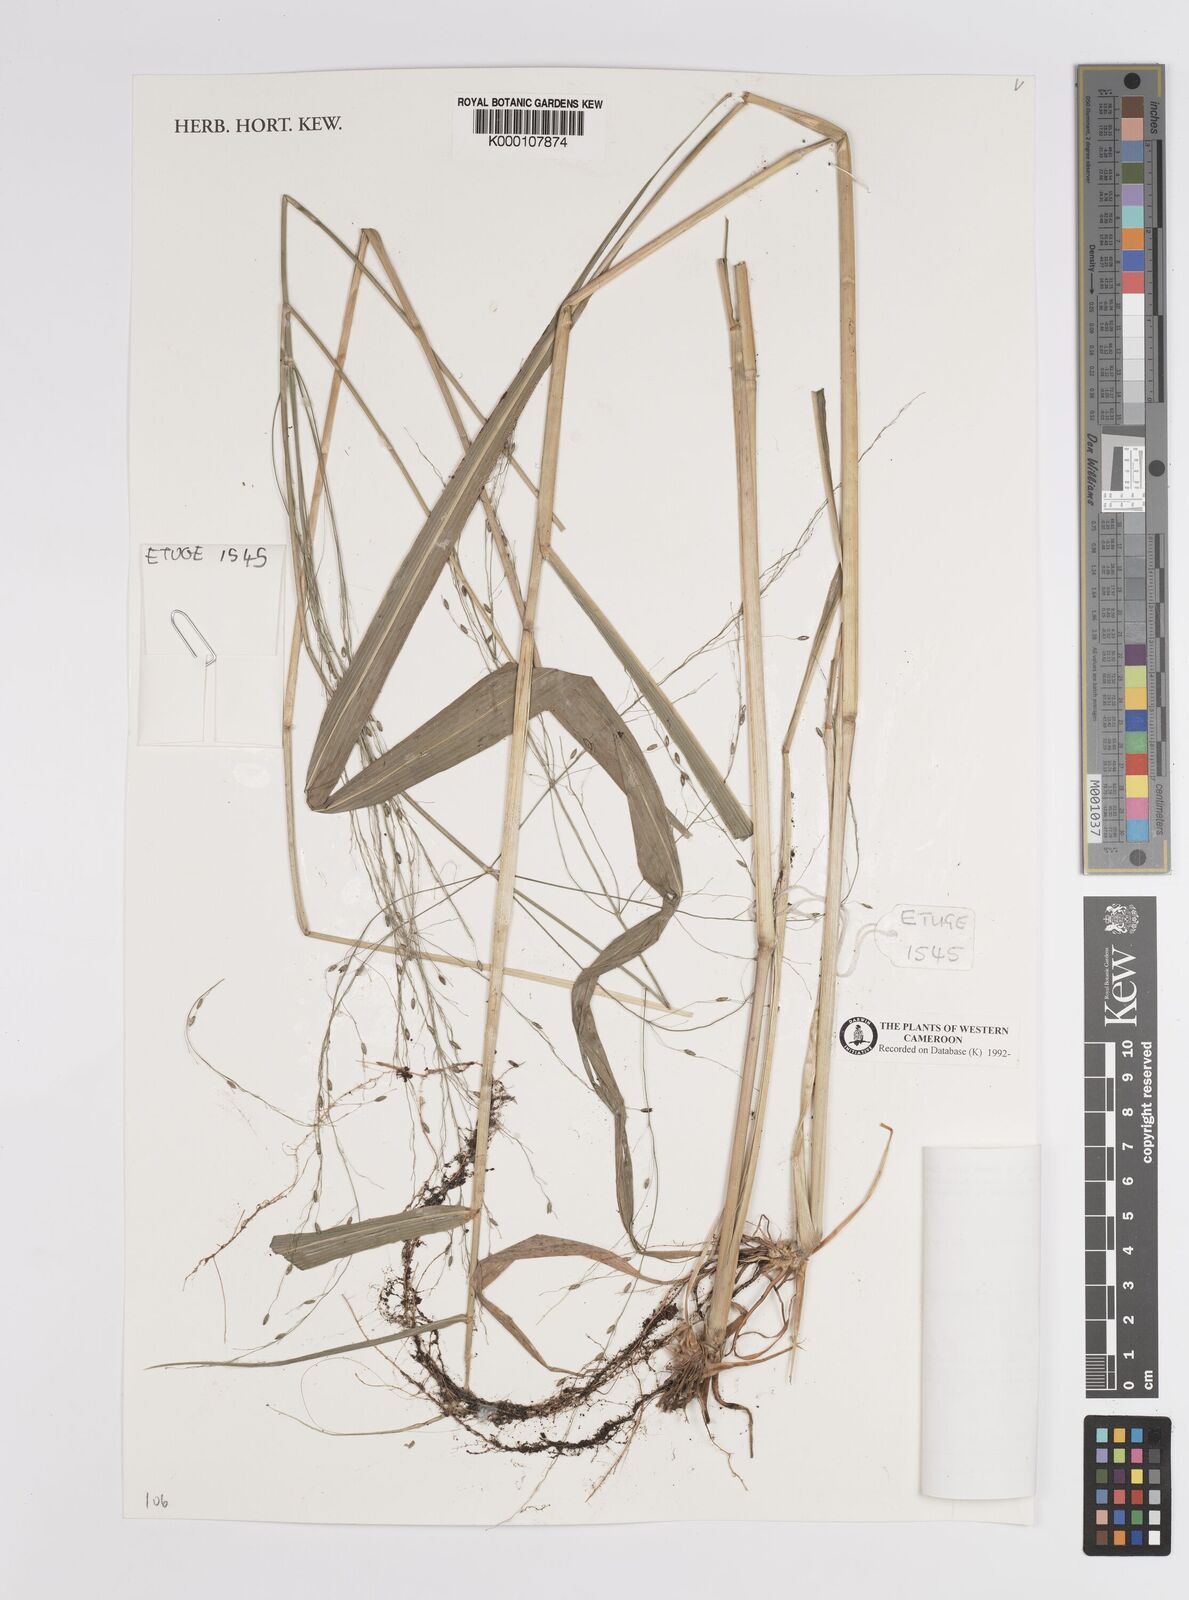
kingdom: Plantae
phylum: Tracheophyta
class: Liliopsida
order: Poales
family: Poaceae
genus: Megathyrsus
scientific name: Megathyrsus maximus
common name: Guineagrass
